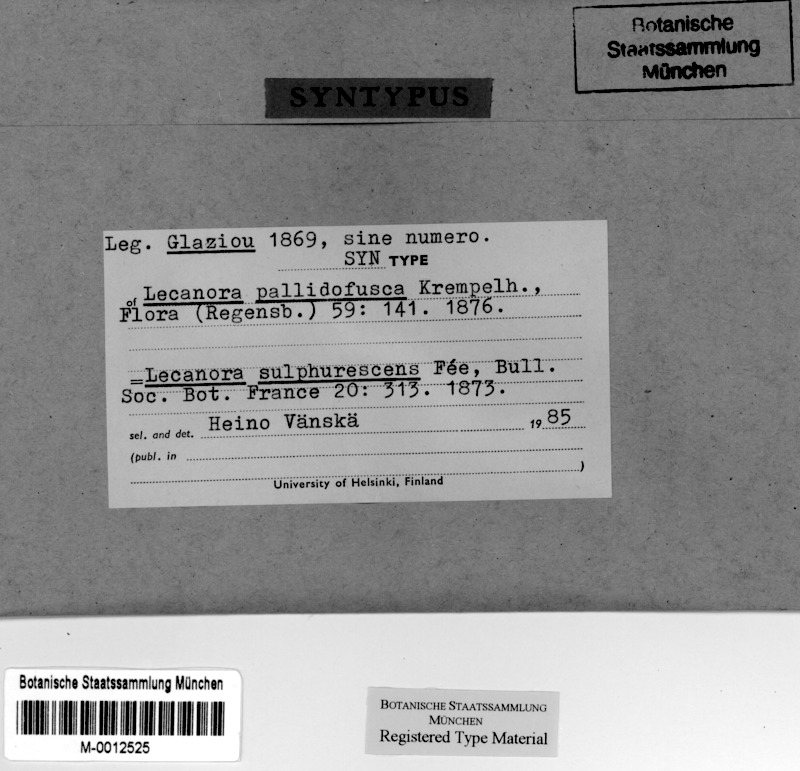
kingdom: Fungi
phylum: Ascomycota
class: Lecanoromycetes
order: Lecanorales
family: Lecanoraceae
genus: Lecanora
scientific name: Lecanora sulphurescens
